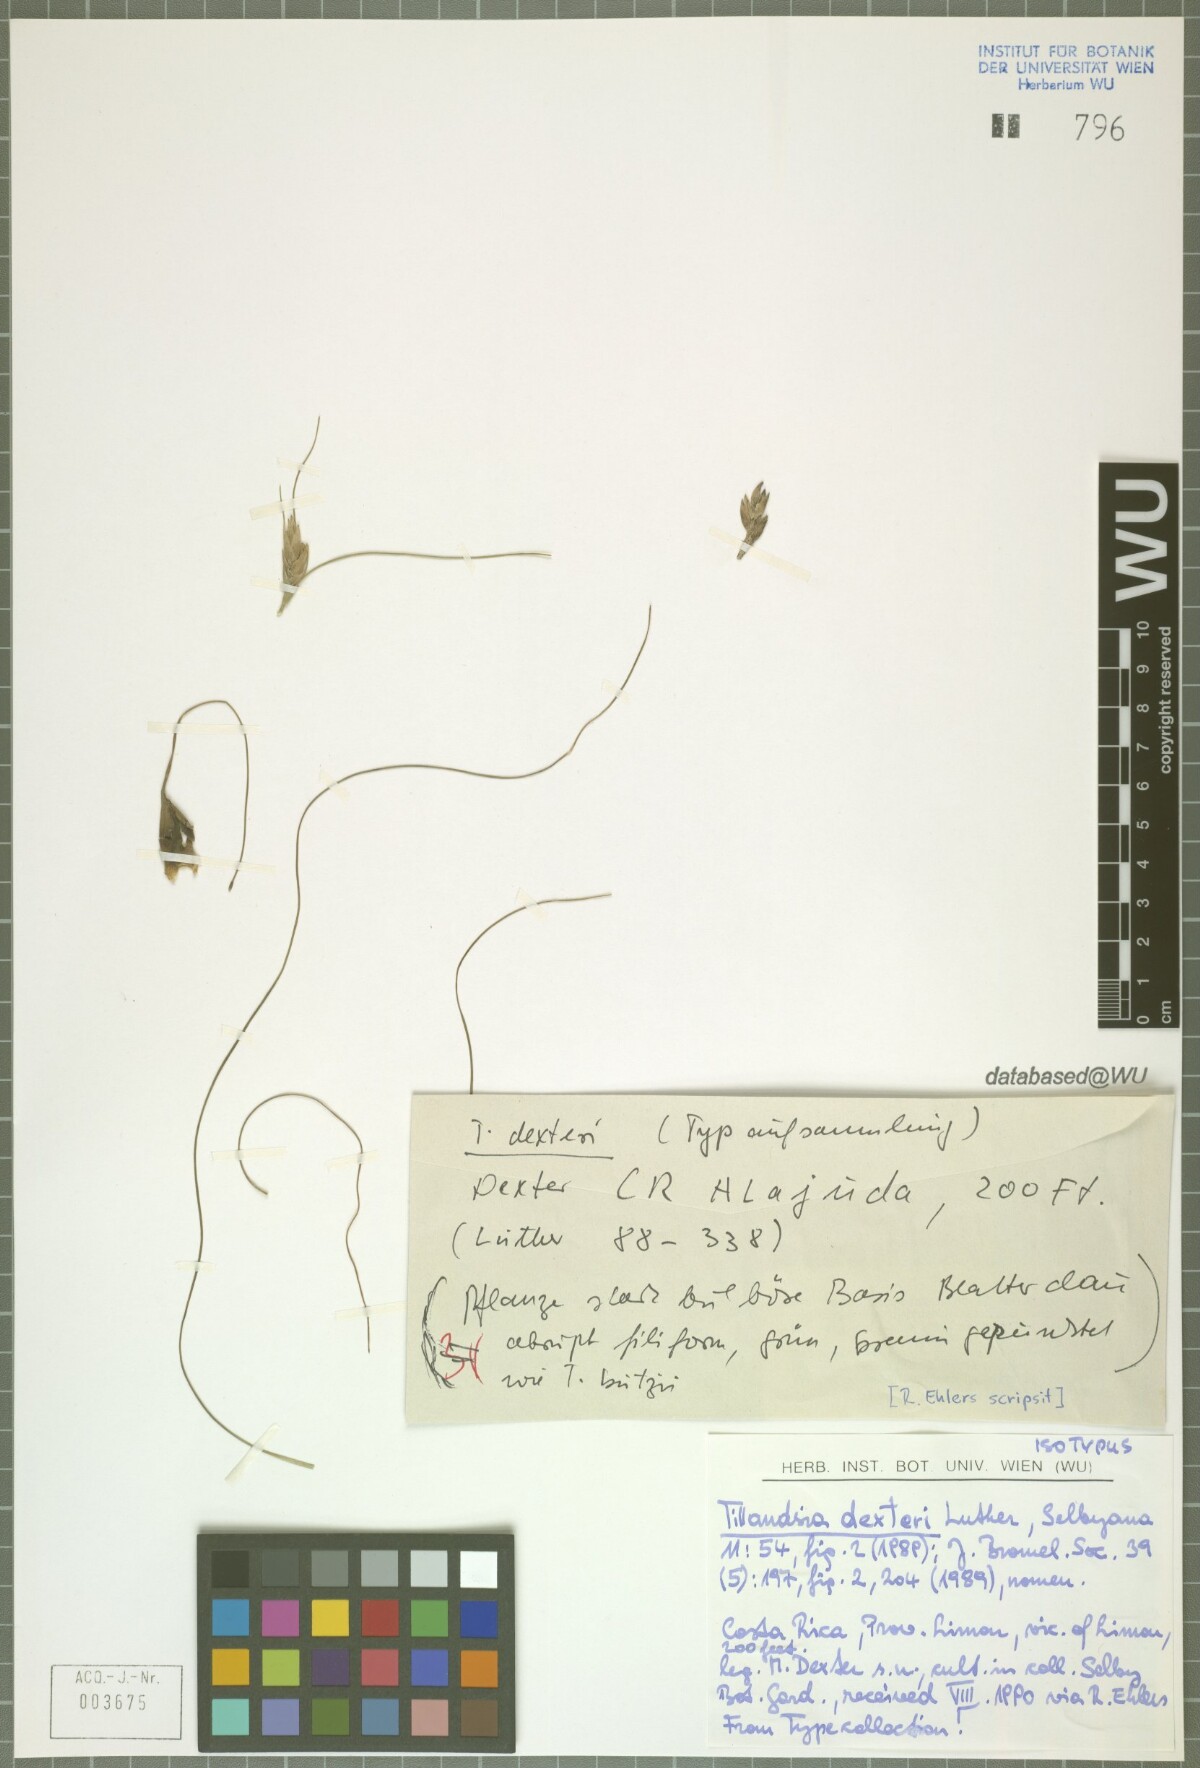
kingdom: Plantae
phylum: Tracheophyta
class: Liliopsida
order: Poales
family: Bromeliaceae
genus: Tillandsia
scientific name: Tillandsia dexteri
